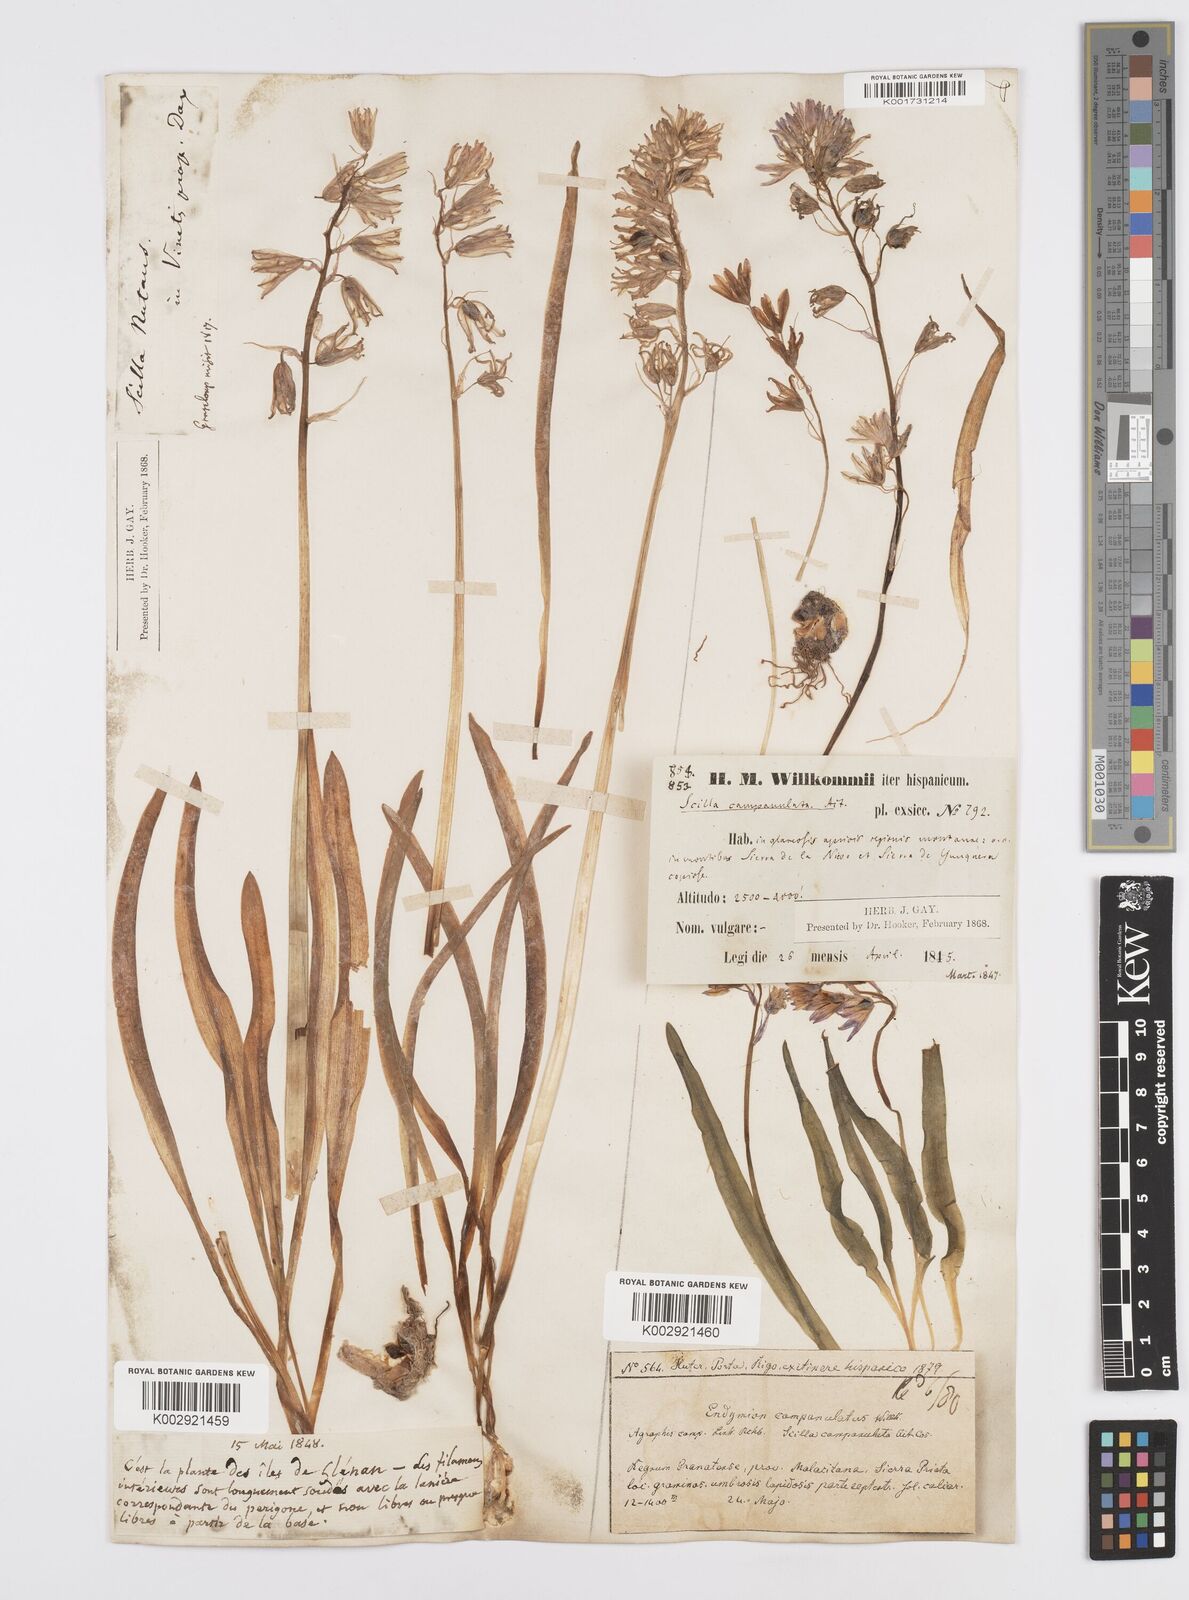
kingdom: Plantae
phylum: Tracheophyta
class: Liliopsida
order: Asparagales
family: Asparagaceae
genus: Hyacinthoides
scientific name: Hyacinthoides hispanica
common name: Spanish bluebell
